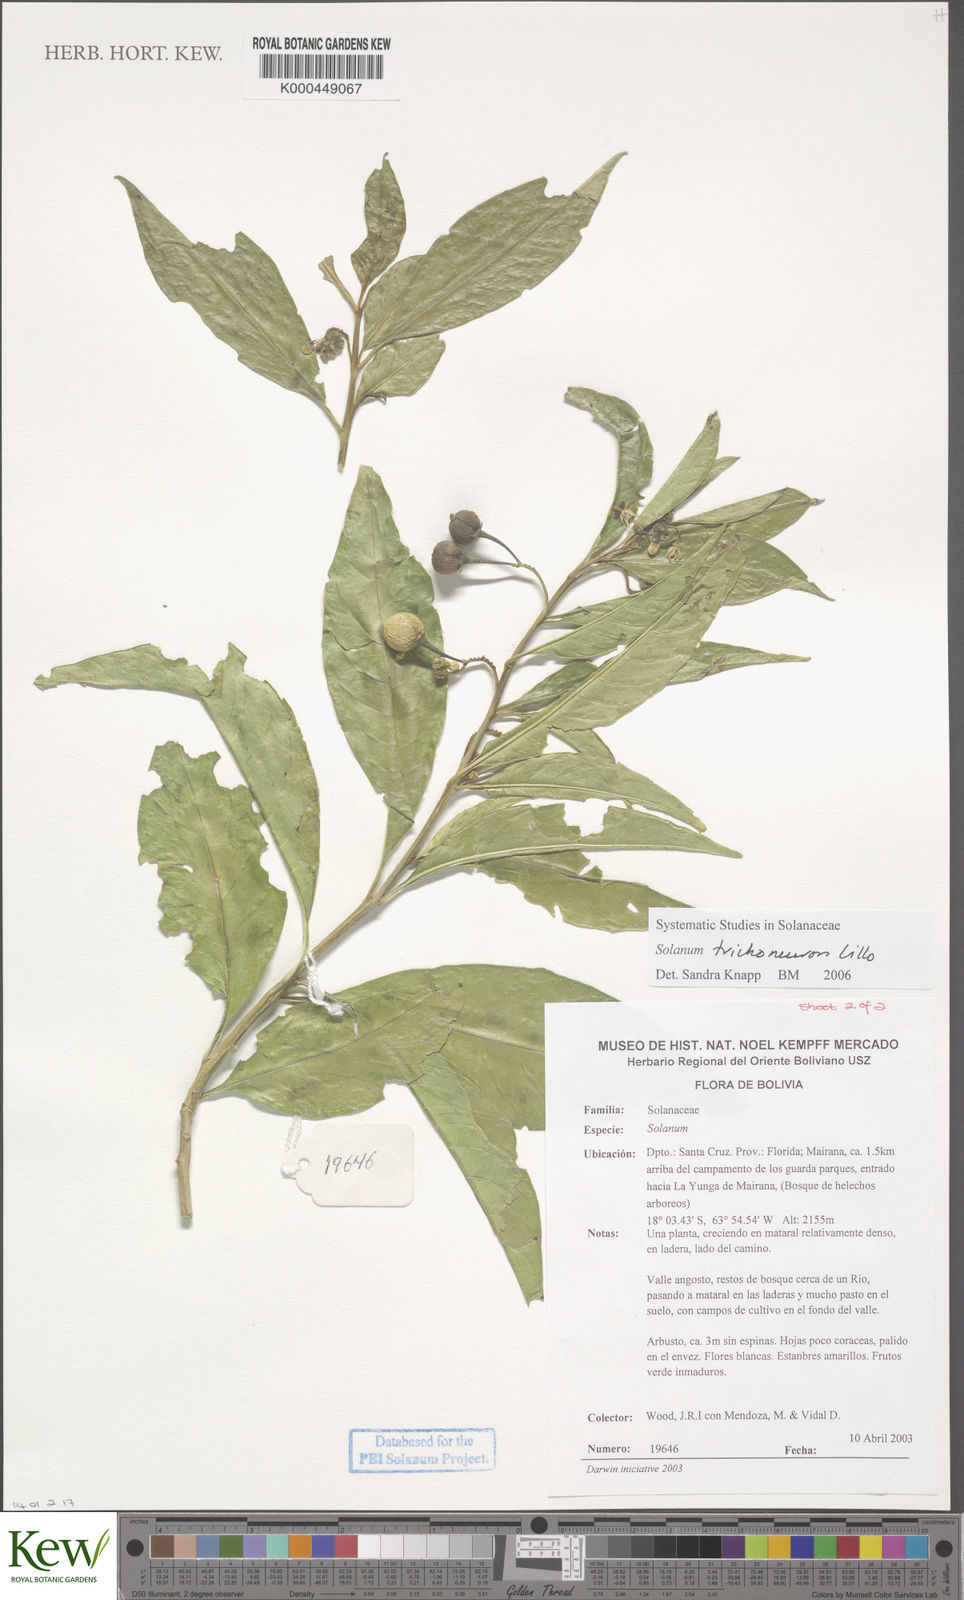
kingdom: Plantae
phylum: Tracheophyta
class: Magnoliopsida
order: Solanales
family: Solanaceae
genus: Solanum
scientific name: Solanum oblongum
